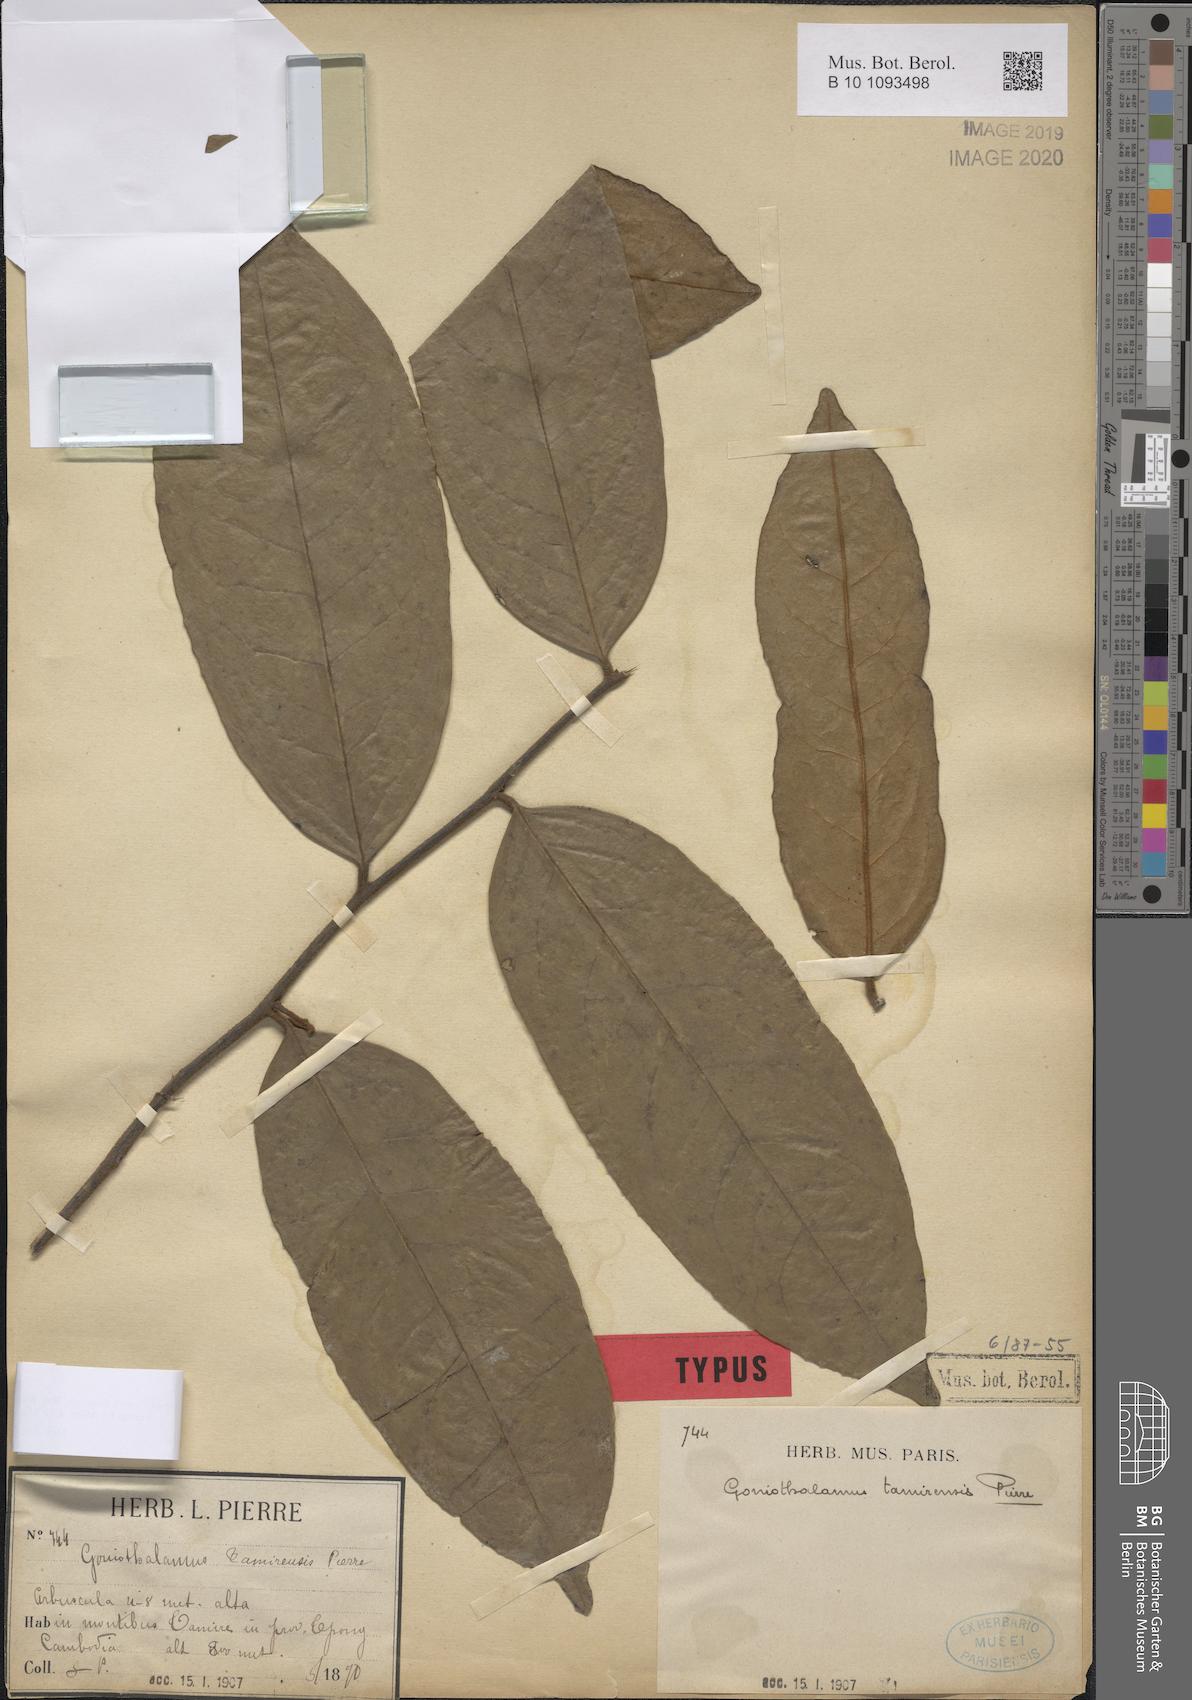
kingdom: Plantae
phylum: Tracheophyta
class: Magnoliopsida
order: Magnoliales
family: Annonaceae
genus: Goniothalamus
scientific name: Goniothalamus tamirensis
